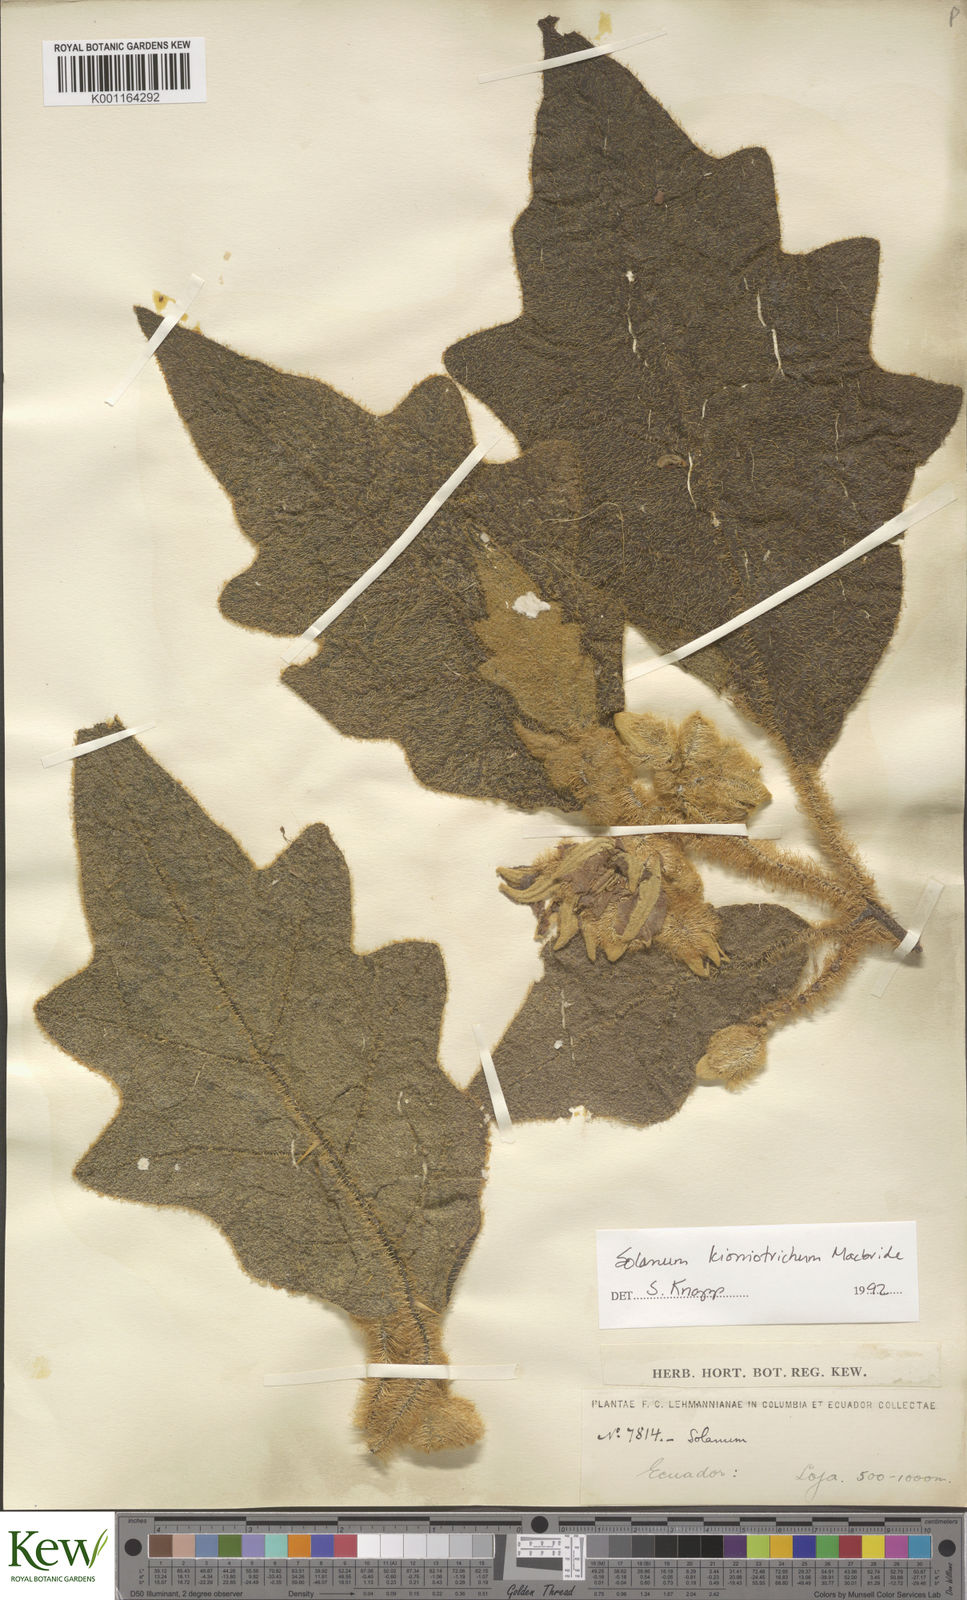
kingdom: Plantae
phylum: Tracheophyta
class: Magnoliopsida
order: Solanales
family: Solanaceae
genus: Solanum
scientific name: Solanum kioniotrichum
